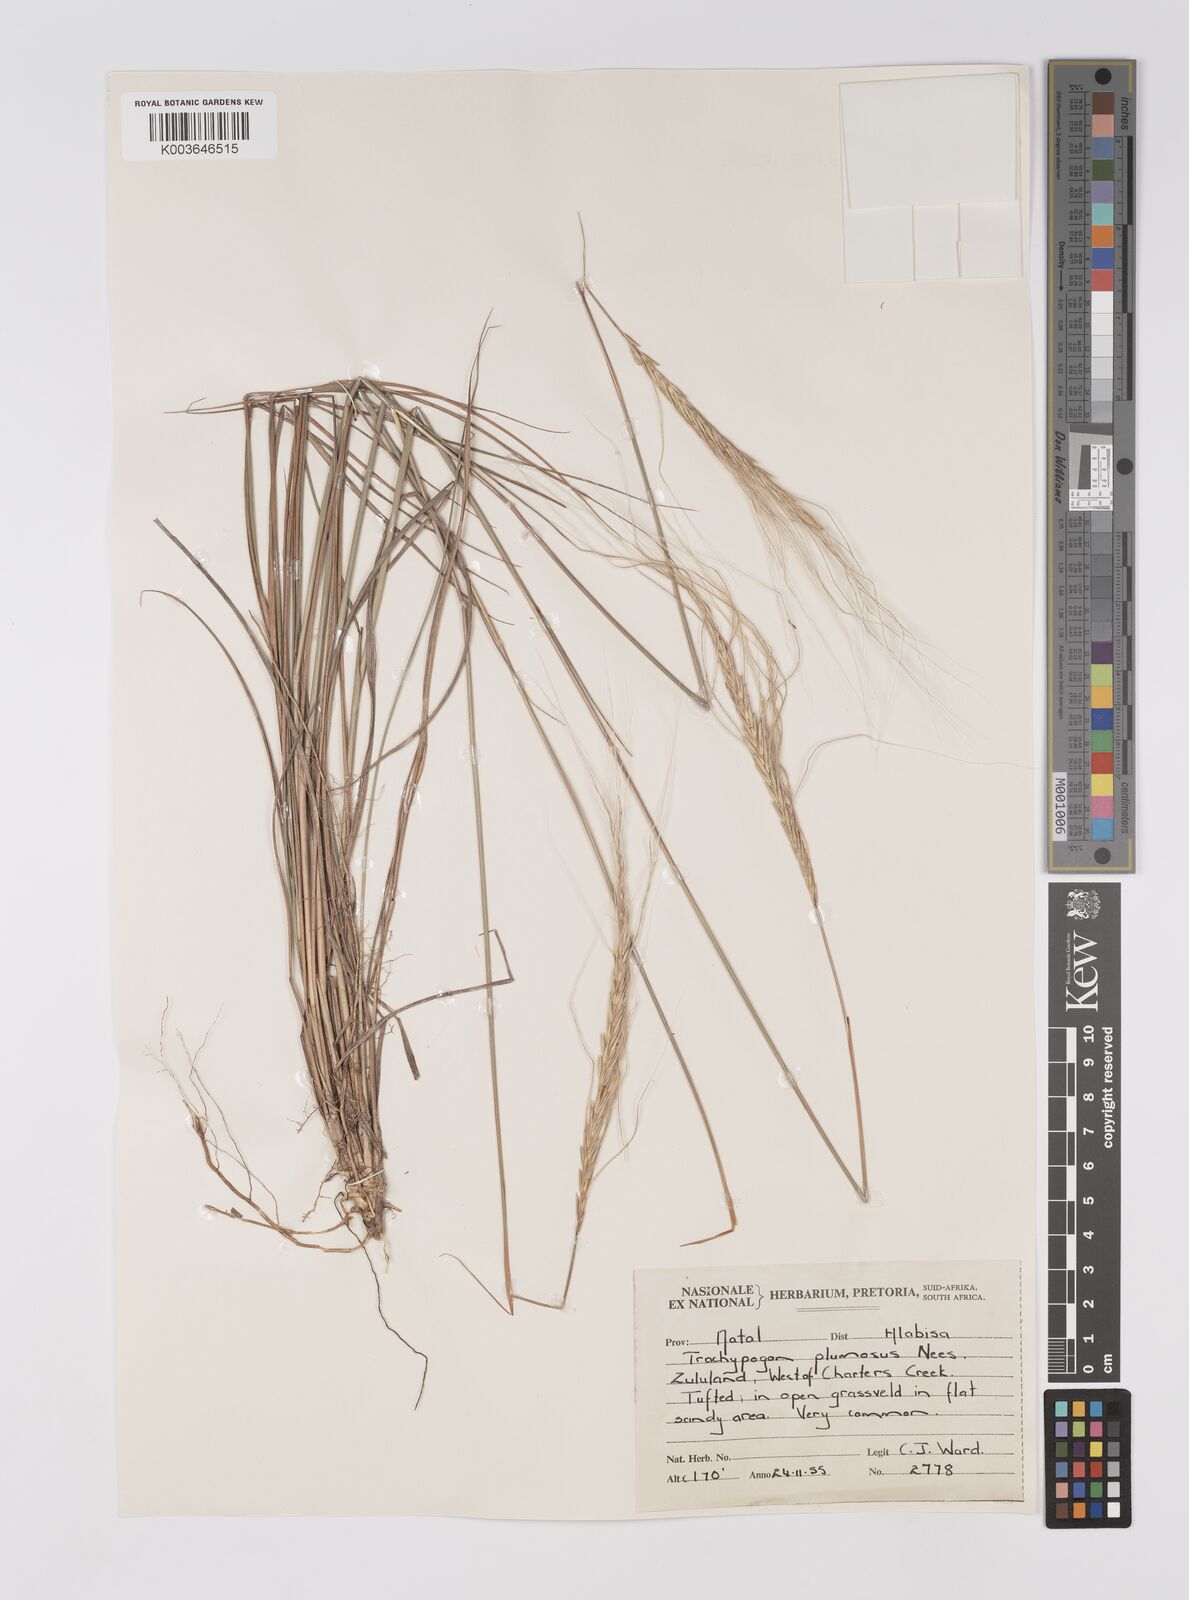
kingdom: Plantae
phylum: Tracheophyta
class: Liliopsida
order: Poales
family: Poaceae
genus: Trachypogon
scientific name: Trachypogon spicatus
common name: Crinkle-awn
